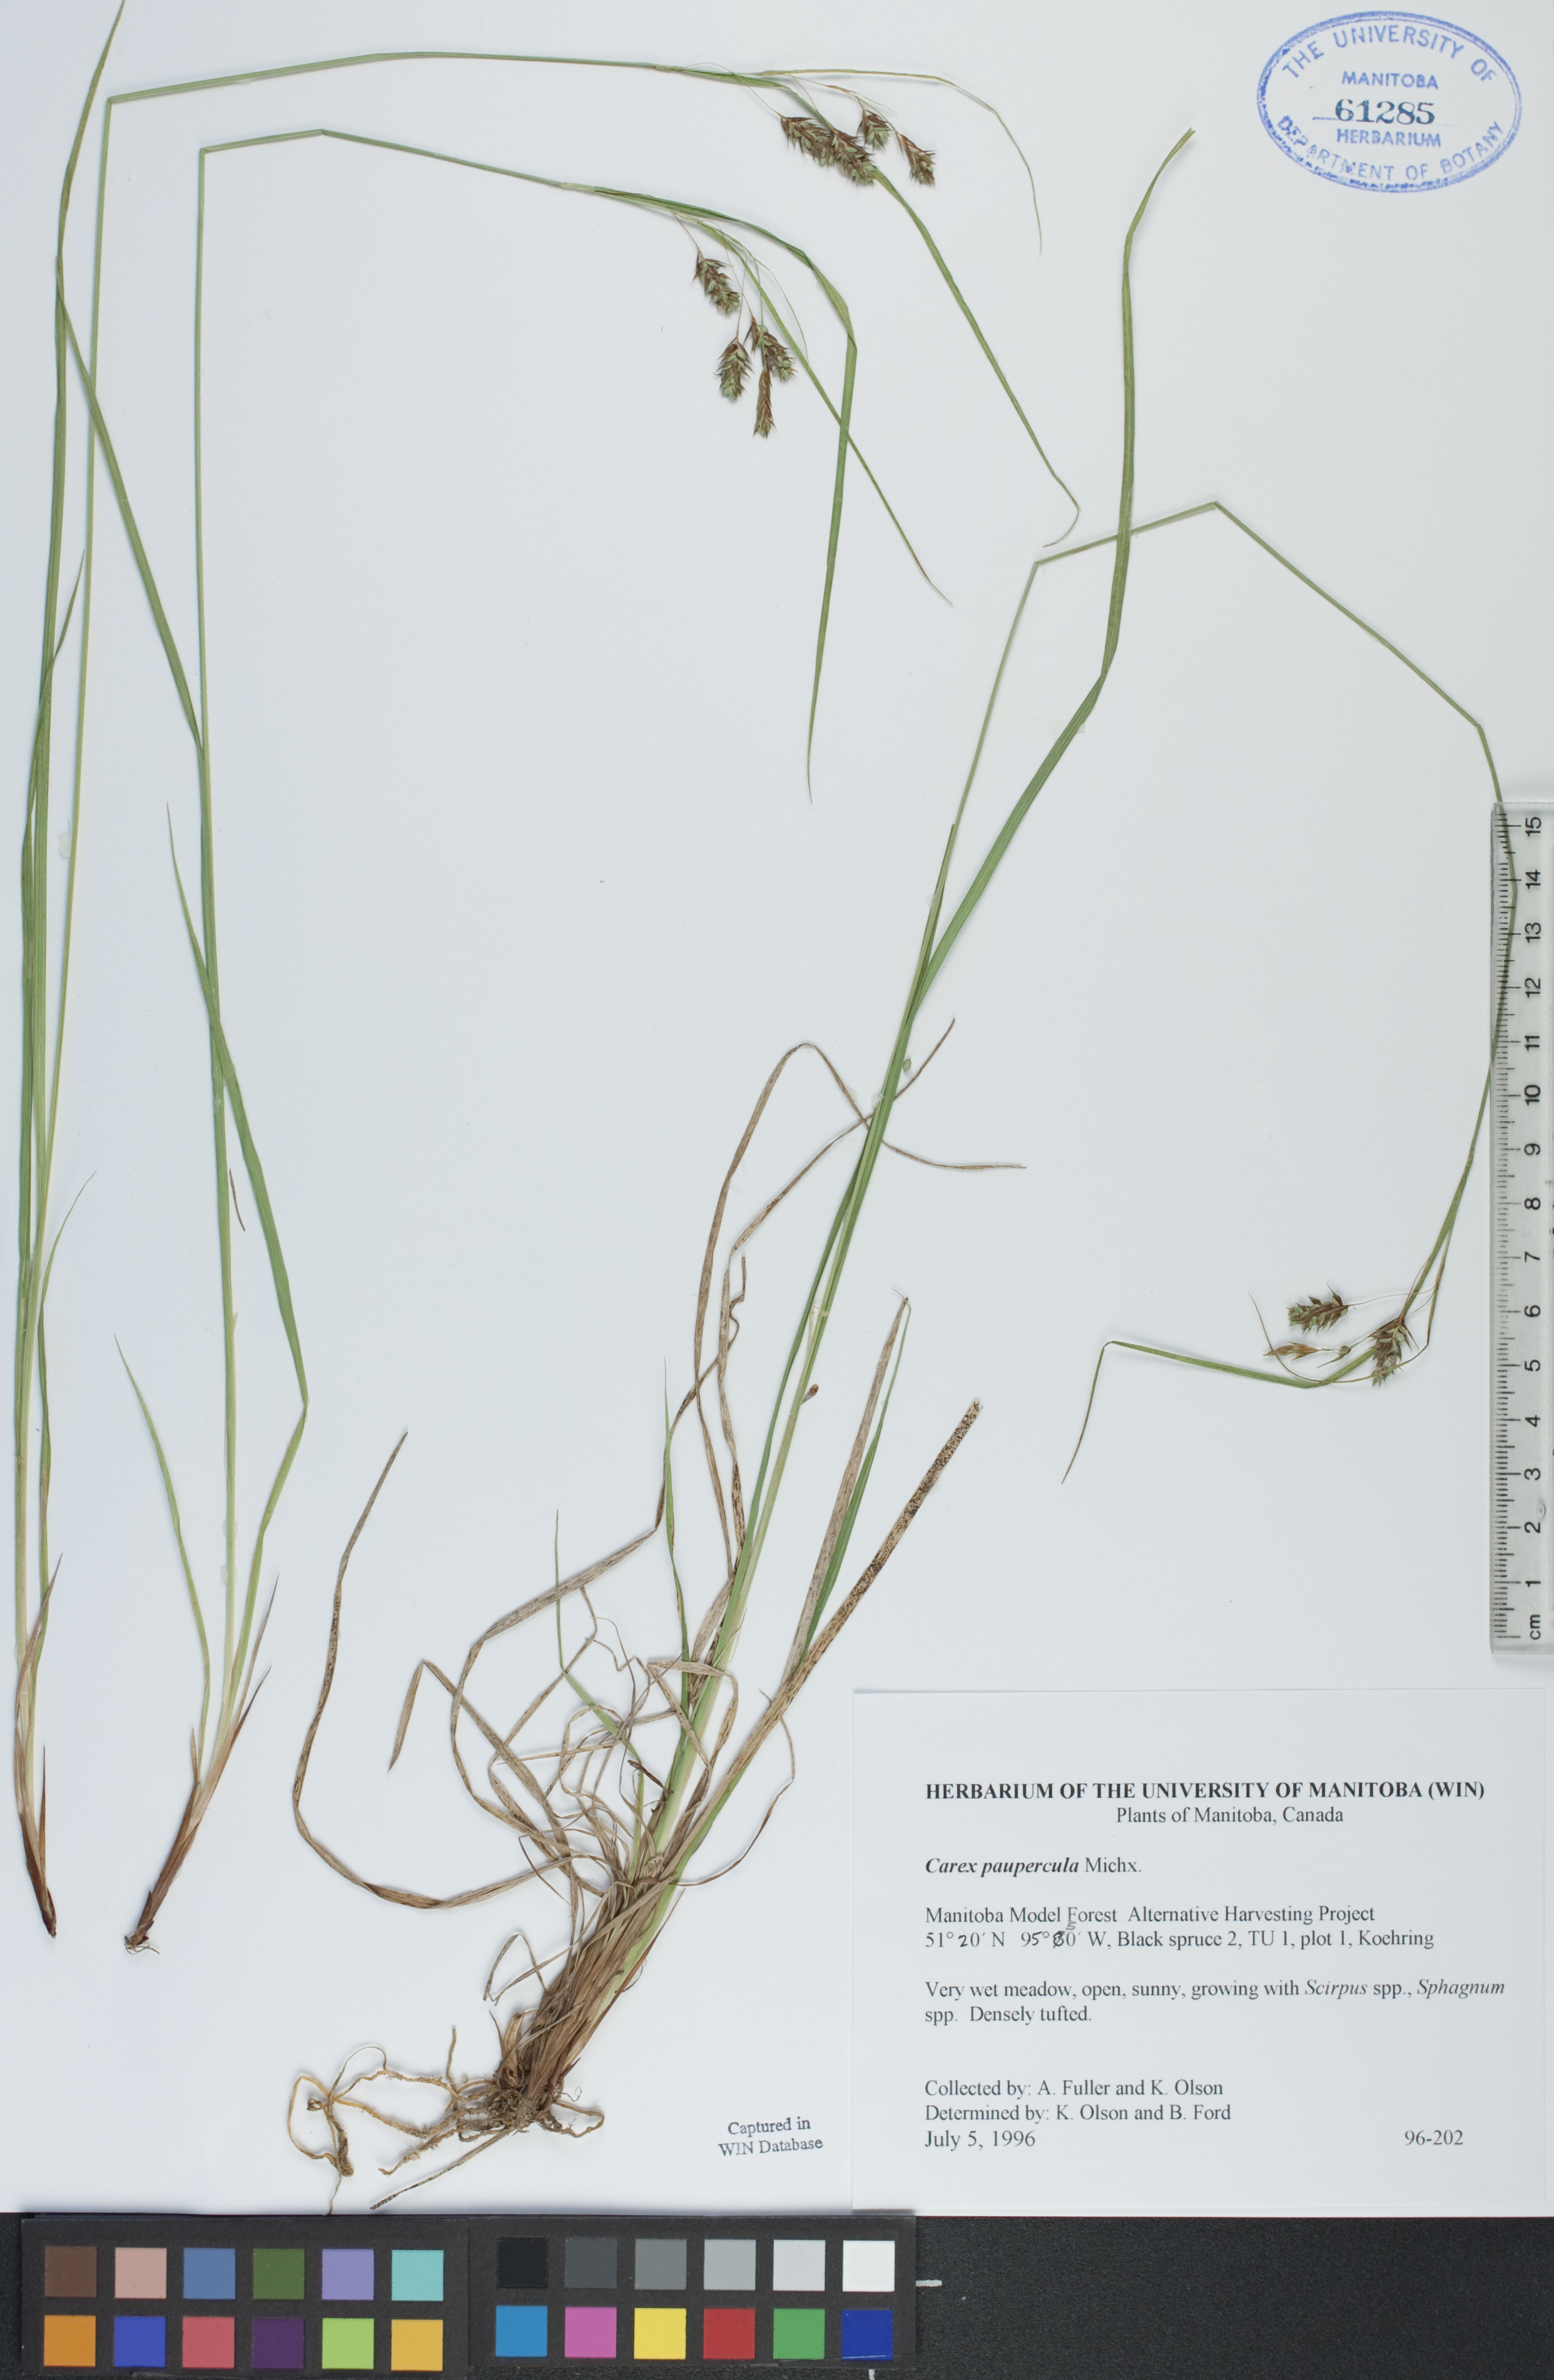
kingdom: Plantae
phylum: Tracheophyta
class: Liliopsida
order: Poales
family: Cyperaceae
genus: Carex
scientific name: Carex magellanica
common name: Bog sedge
